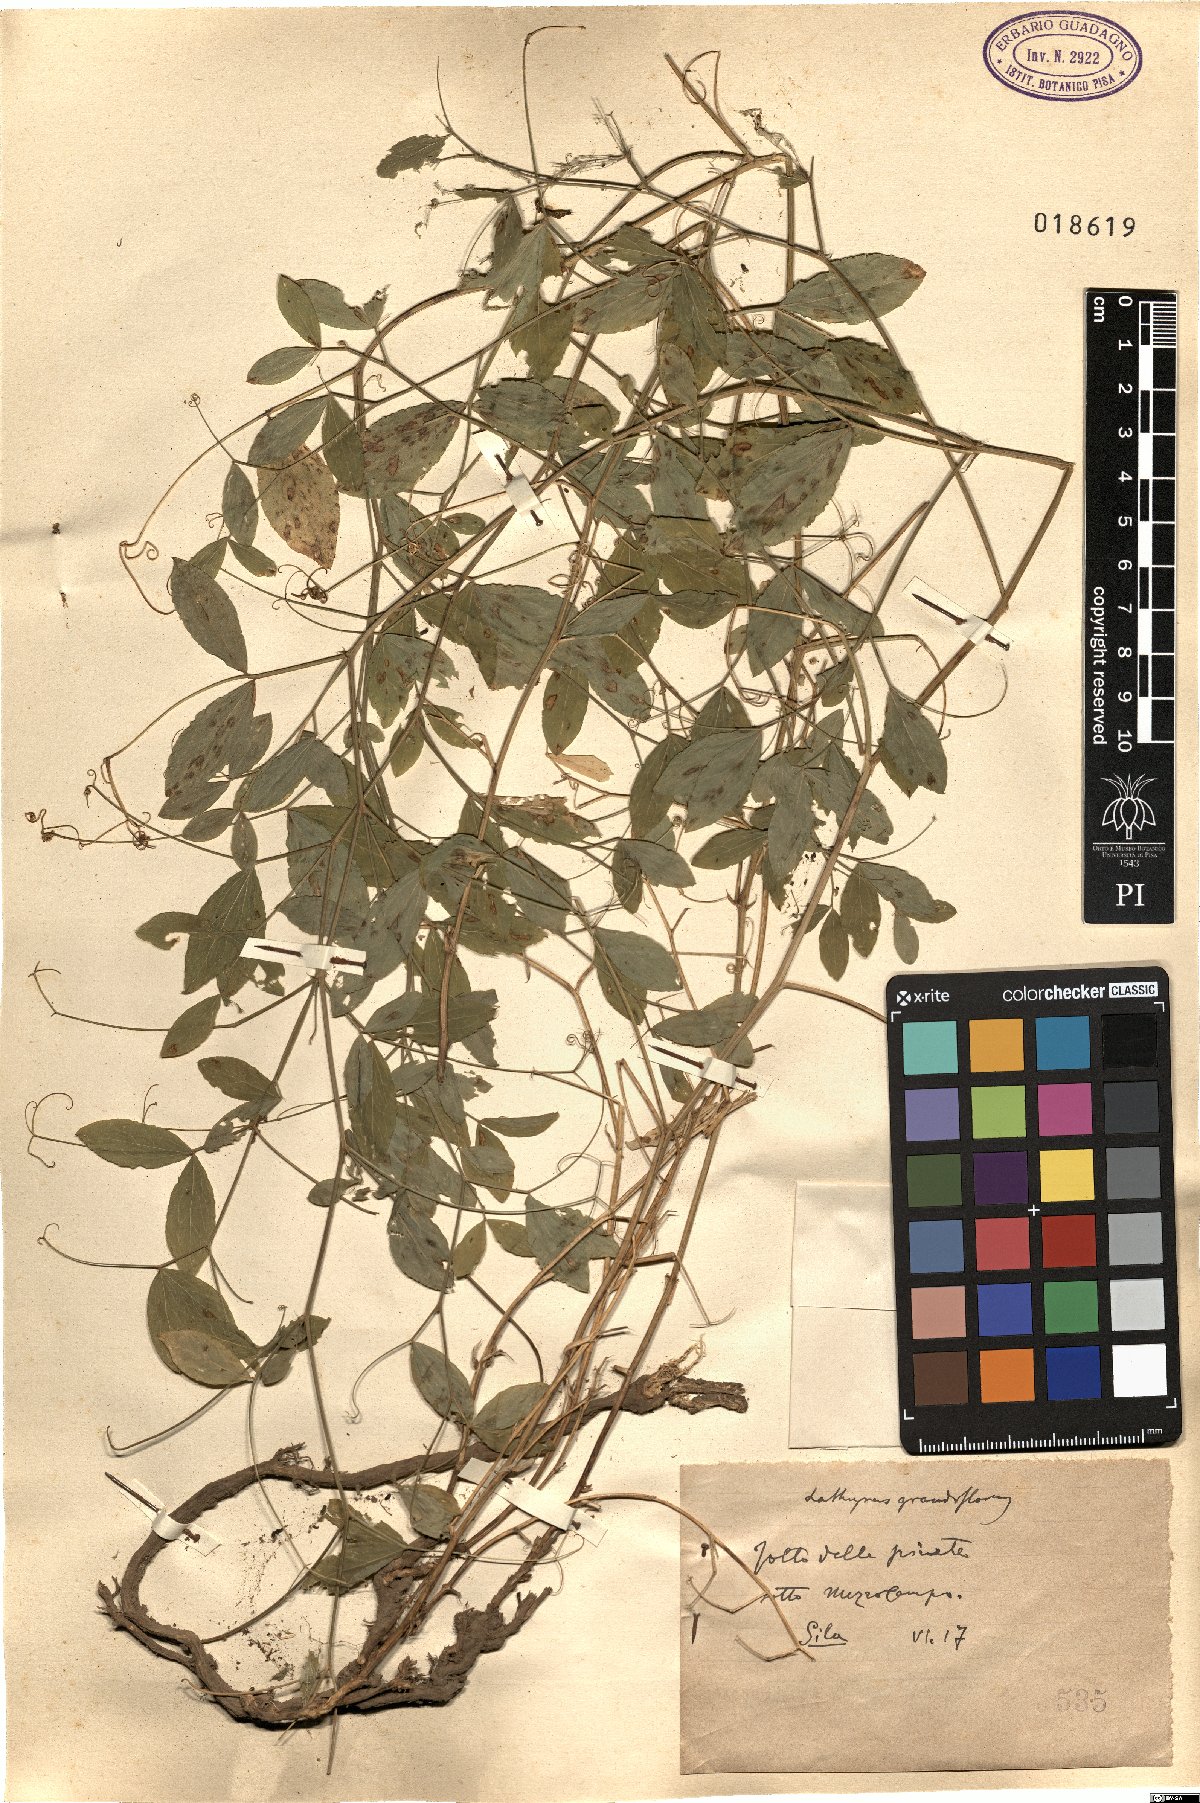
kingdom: Plantae
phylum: Tracheophyta
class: Magnoliopsida
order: Fabales
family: Fabaceae
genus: Lathyrus
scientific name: Lathyrus grandiflorus
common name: Two-flowered everlasting-pea
